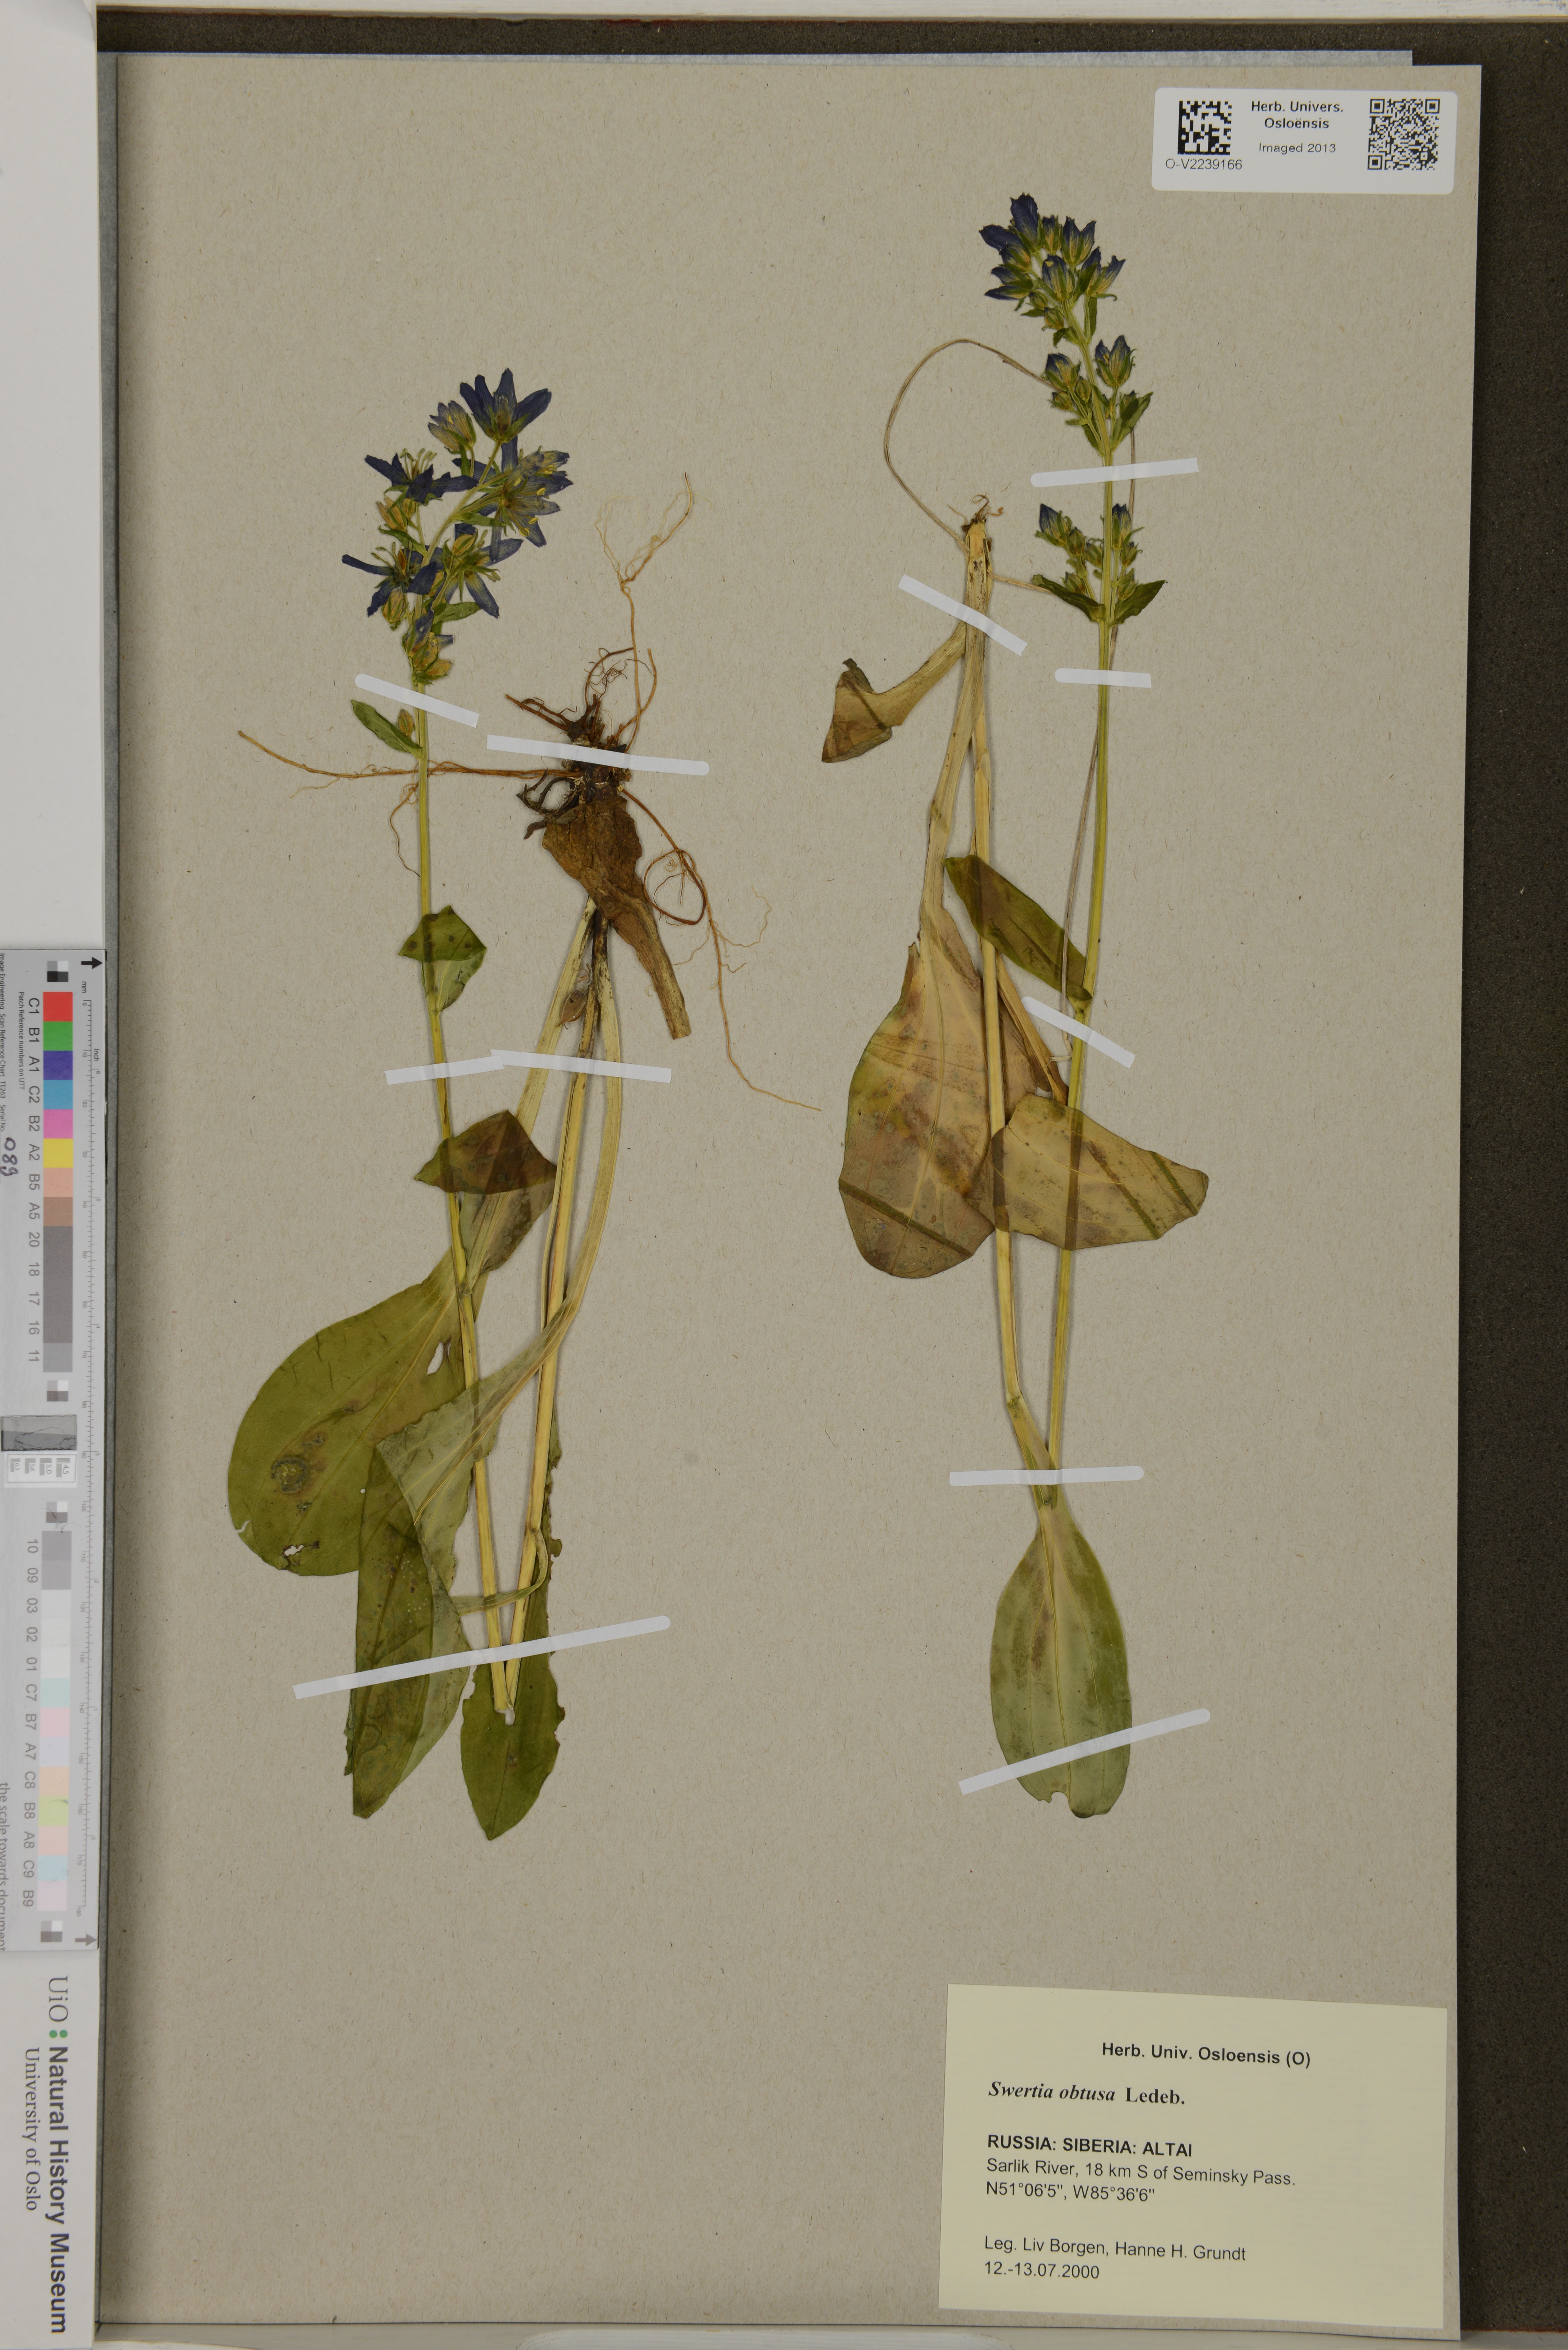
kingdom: Plantae
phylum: Tracheophyta
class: Magnoliopsida
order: Gentianales
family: Gentianaceae
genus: Swertia
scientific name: Swertia obtusa
